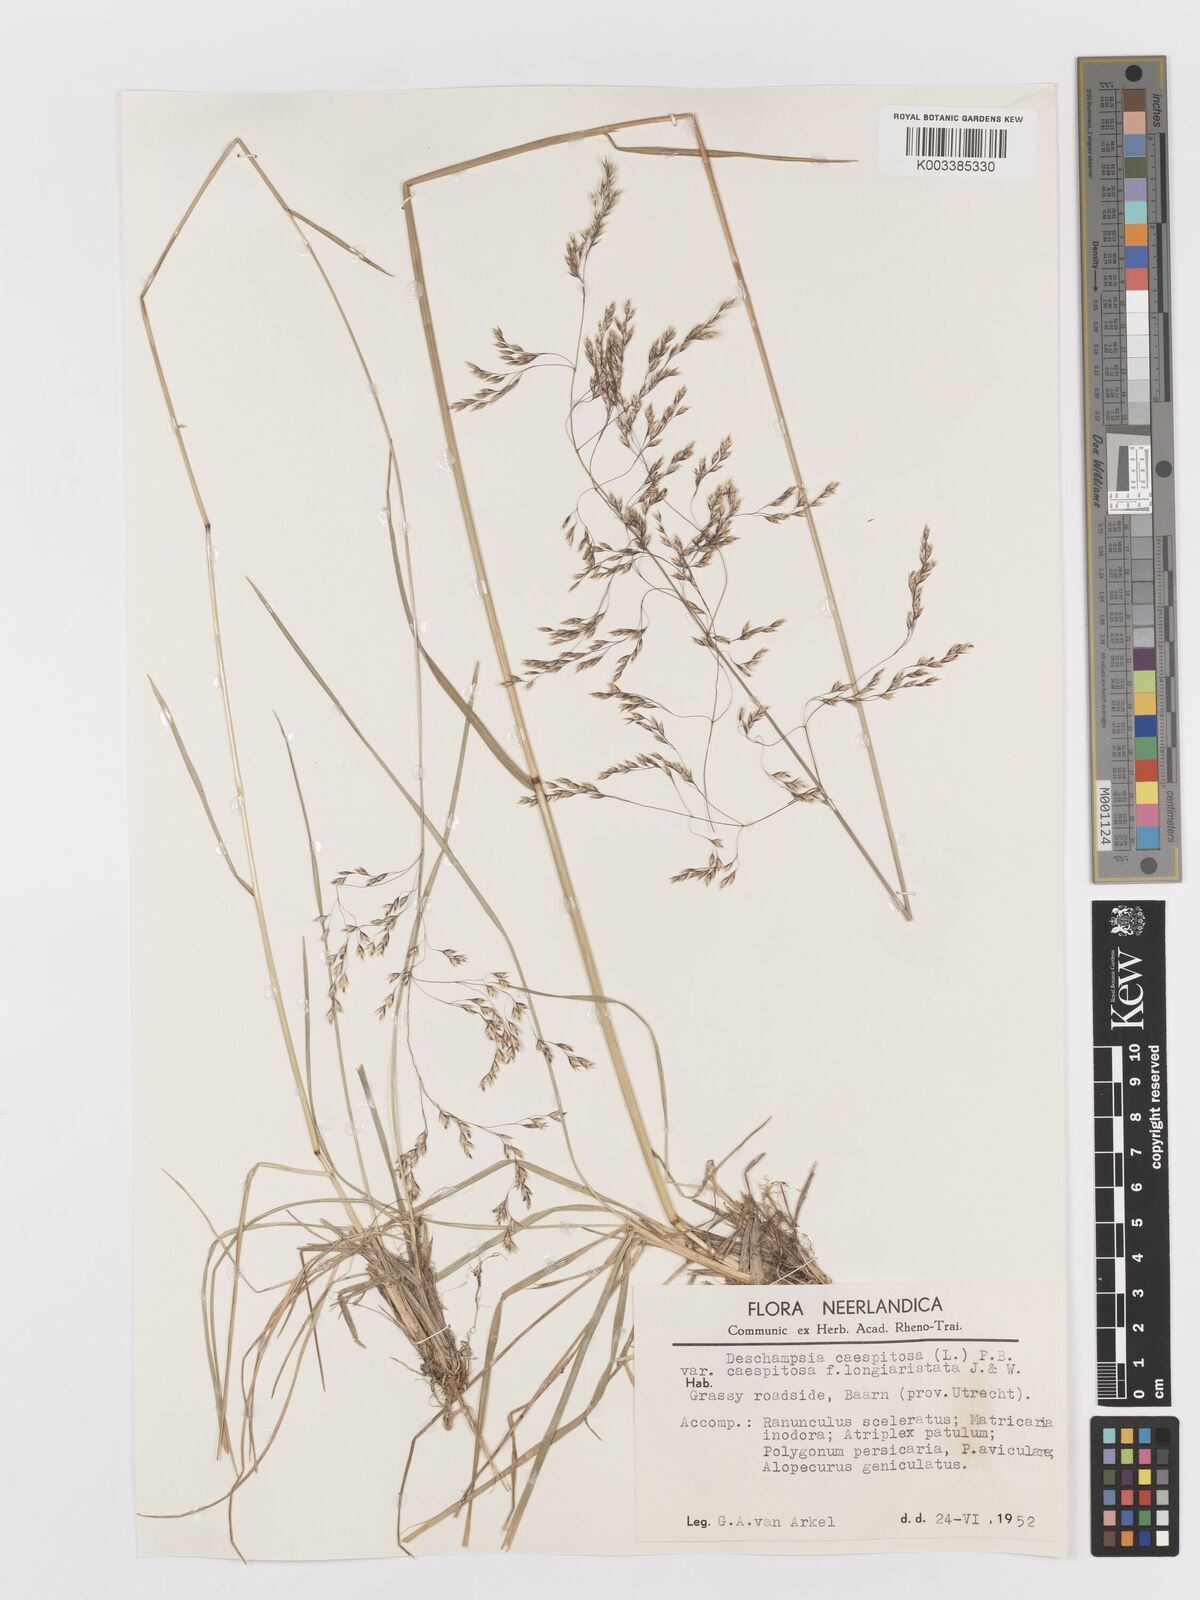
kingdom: Plantae
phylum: Tracheophyta
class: Liliopsida
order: Poales
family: Poaceae
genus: Deschampsia
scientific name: Deschampsia cespitosa
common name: Tufted hair-grass
